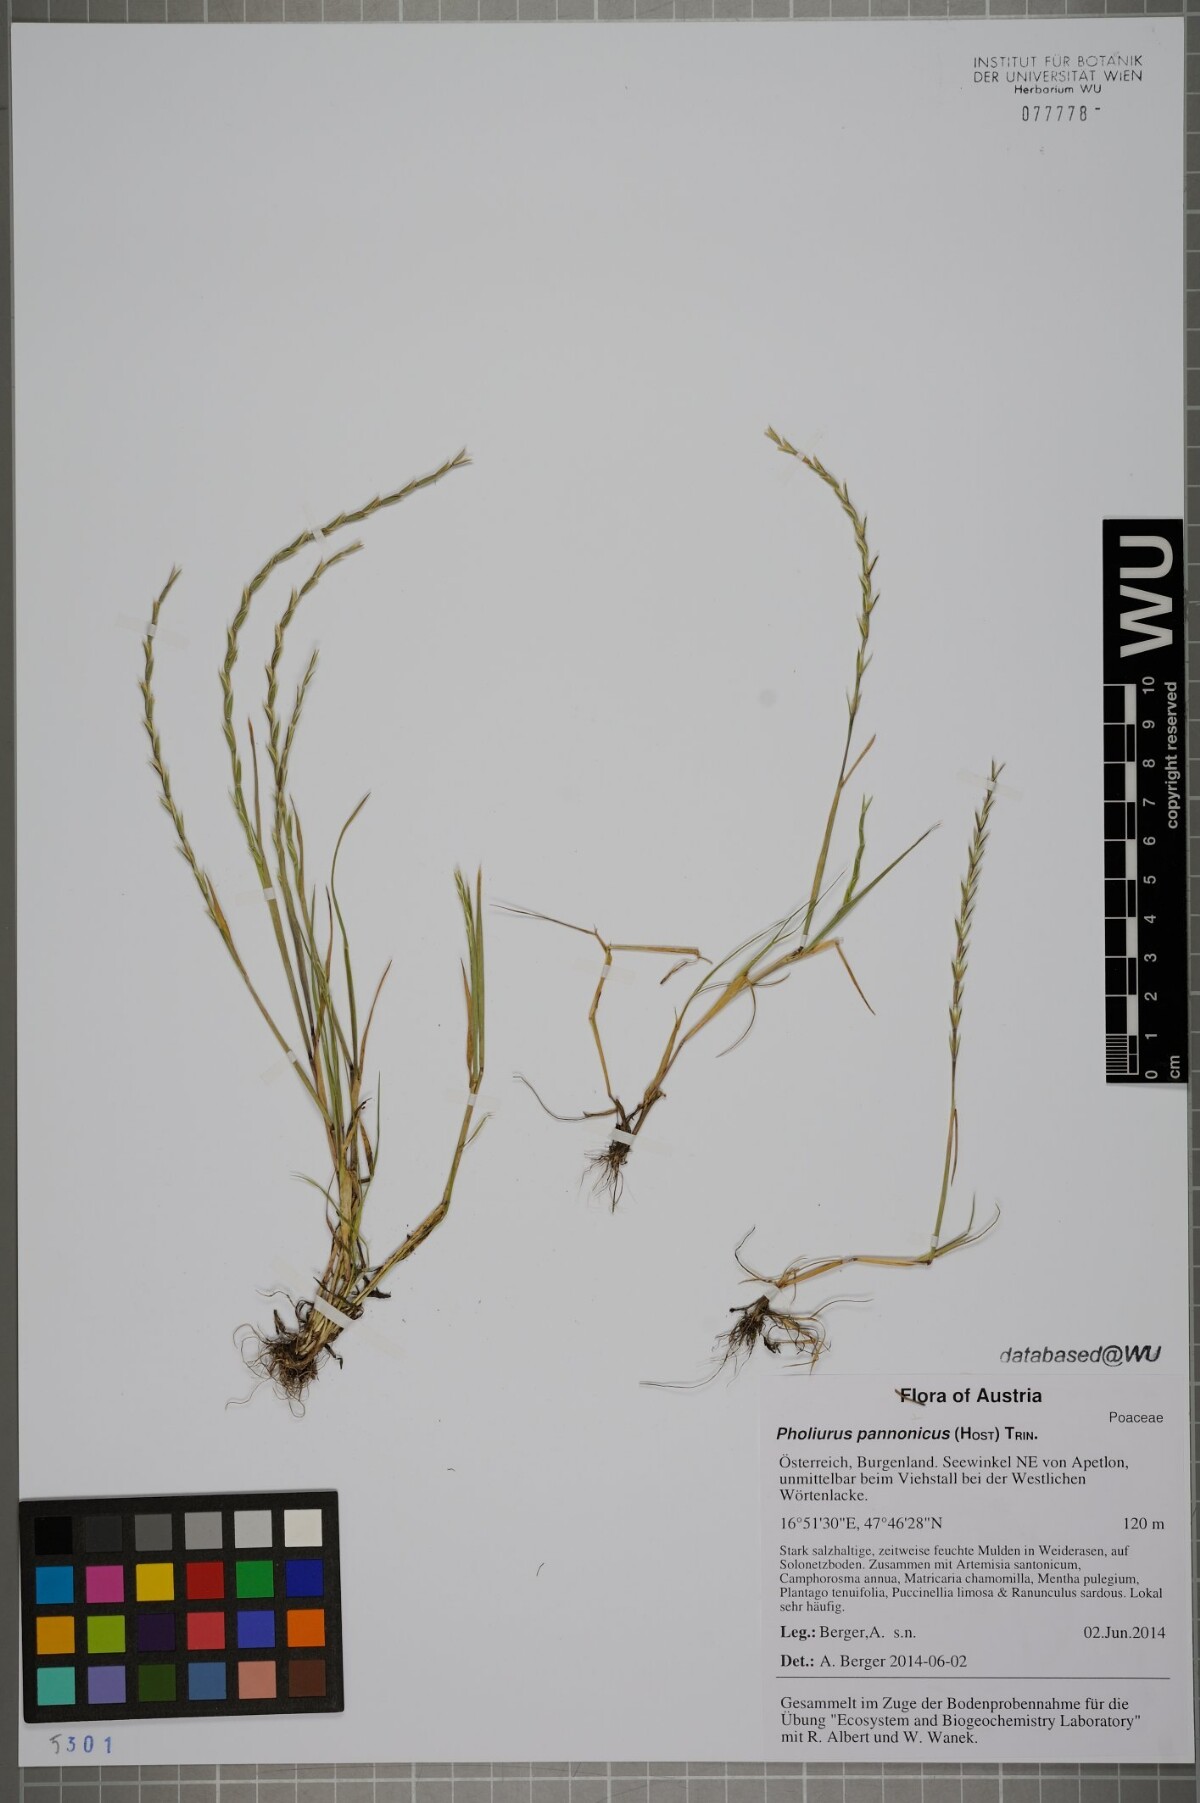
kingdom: Plantae
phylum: Tracheophyta
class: Liliopsida
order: Poales
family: Poaceae
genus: Pholiurus
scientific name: Pholiurus pannonicus
